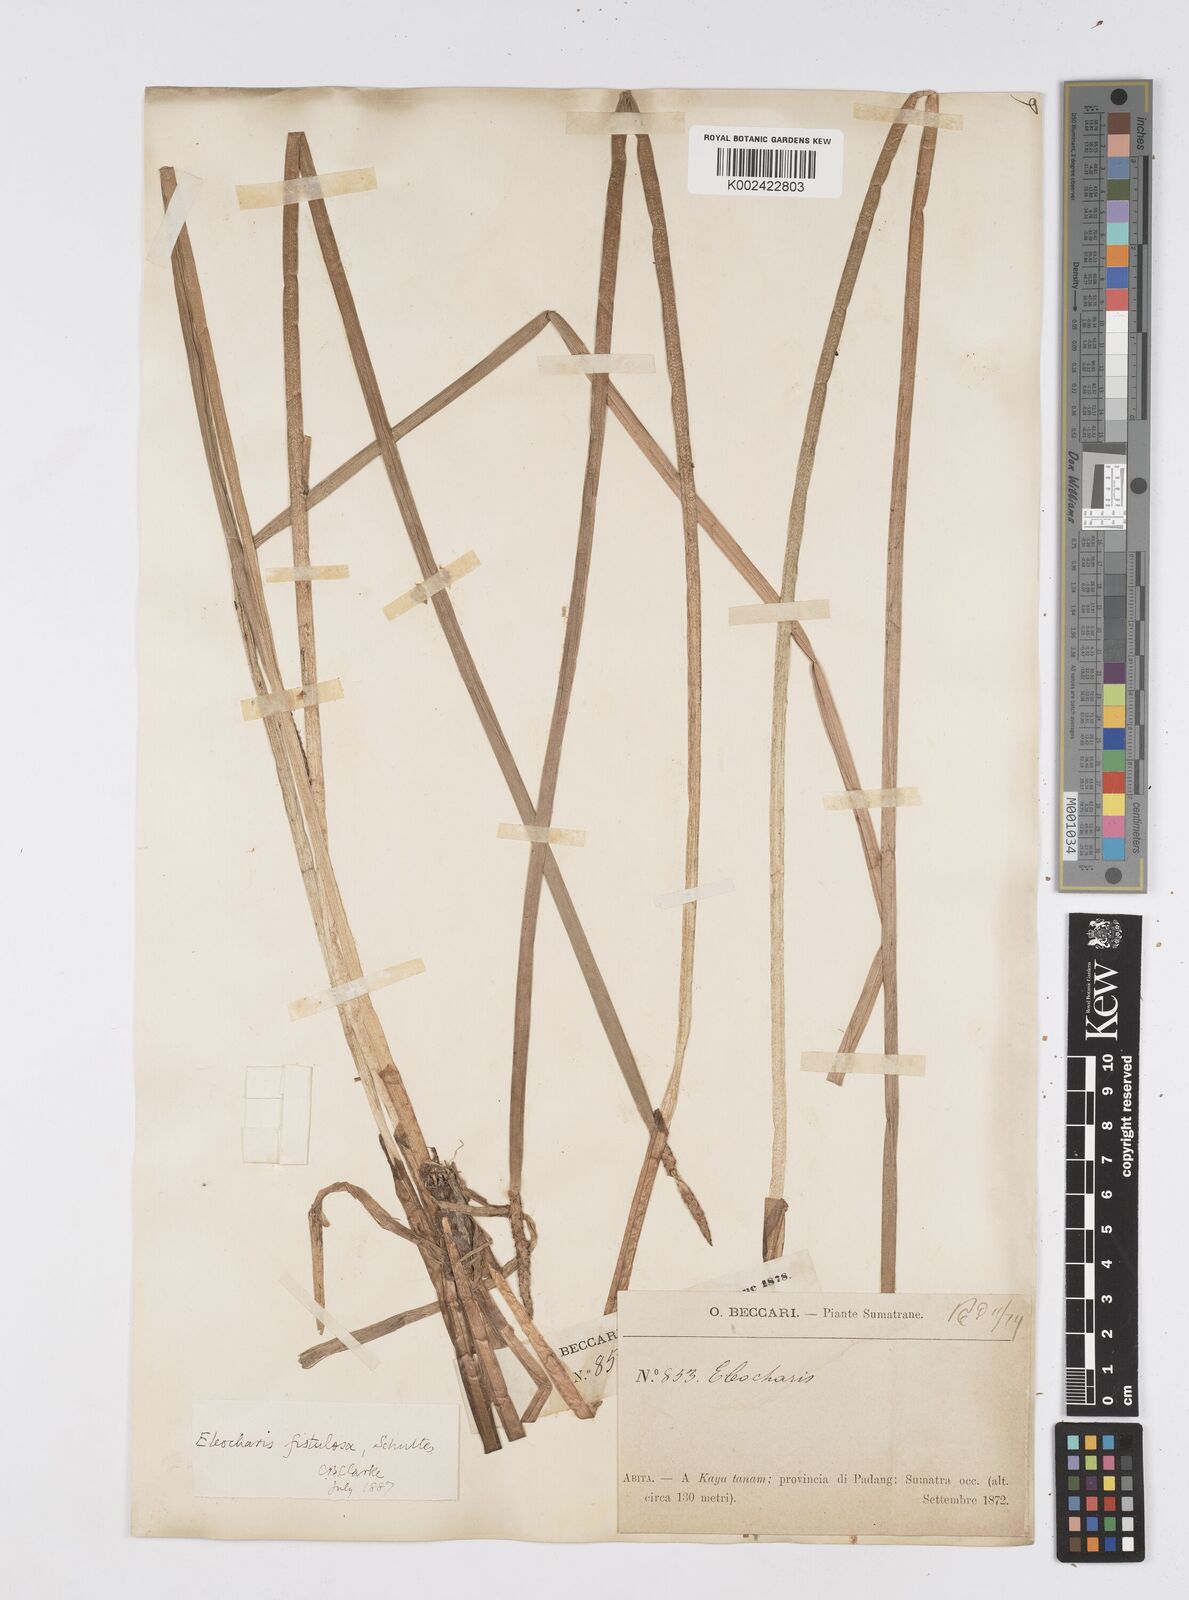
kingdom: Plantae
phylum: Tracheophyta
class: Liliopsida
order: Poales
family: Cyperaceae
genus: Eleocharis
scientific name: Eleocharis acutangula
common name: Acute spikerush
